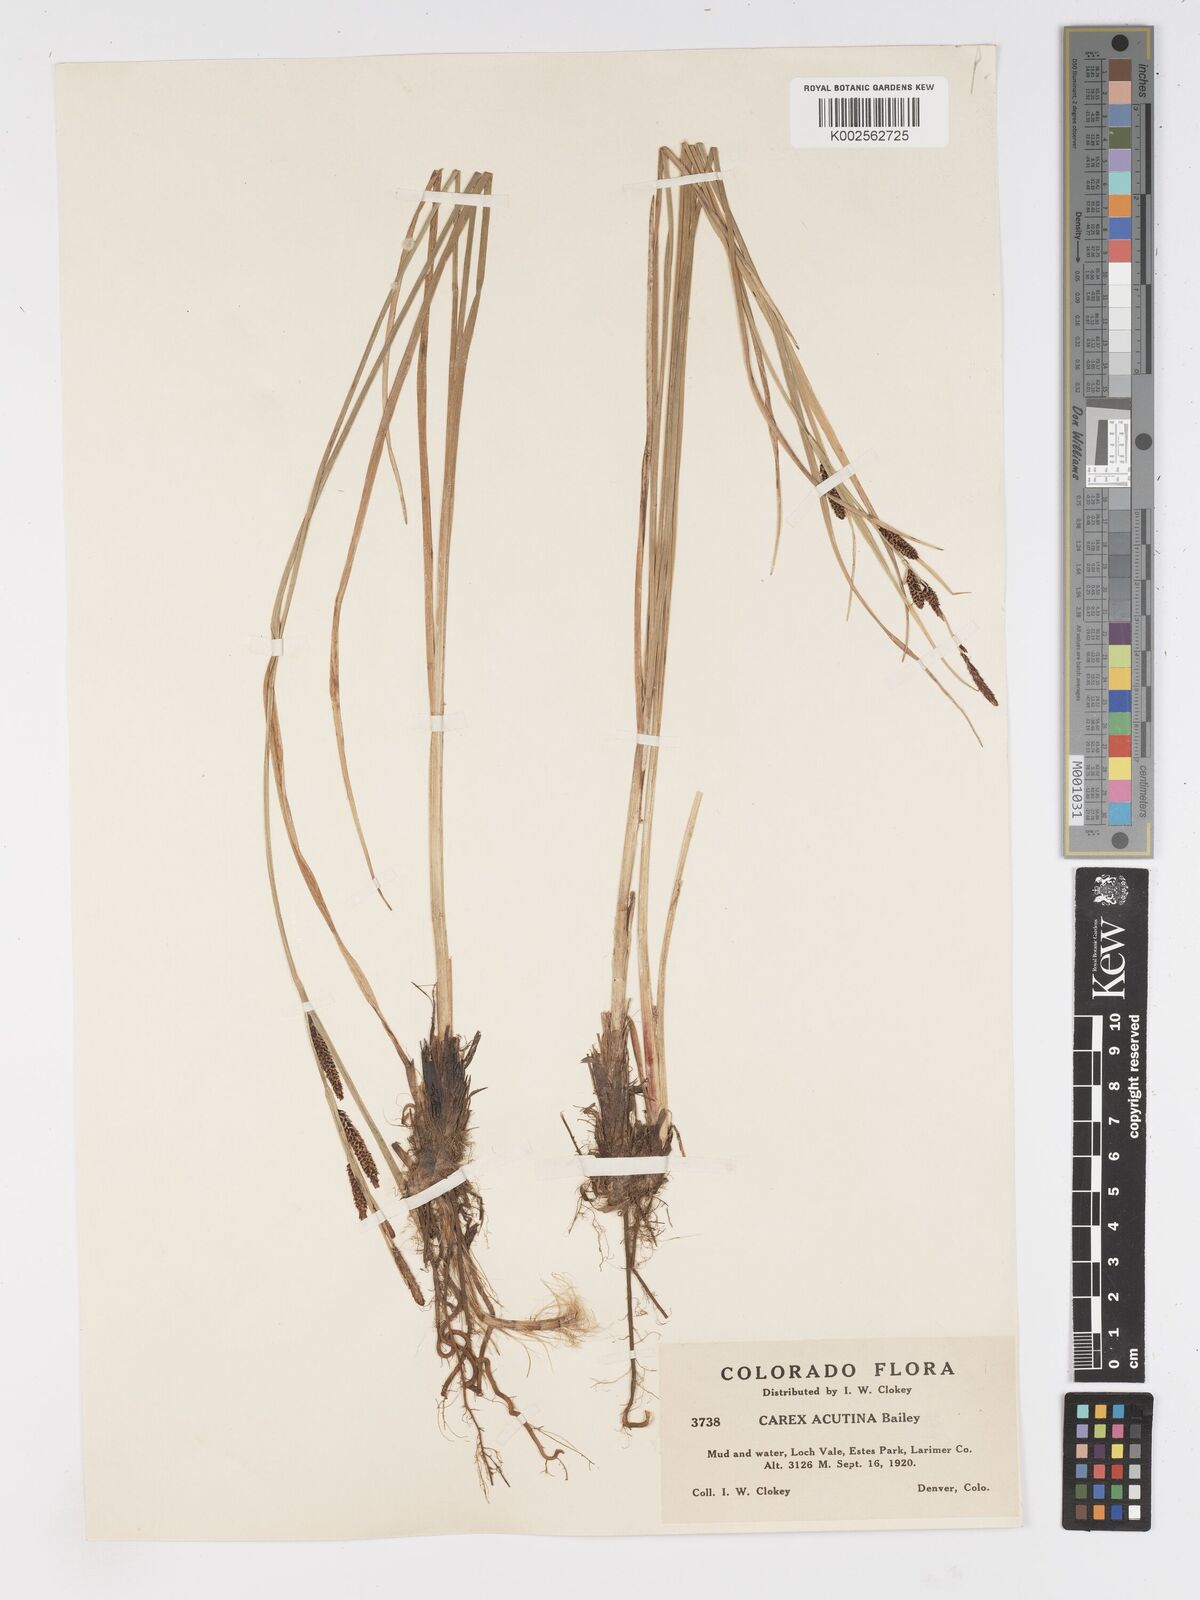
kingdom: Plantae
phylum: Tracheophyta
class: Liliopsida
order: Poales
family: Cyperaceae
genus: Carex
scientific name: Carex angustata
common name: Widefruit sedge
